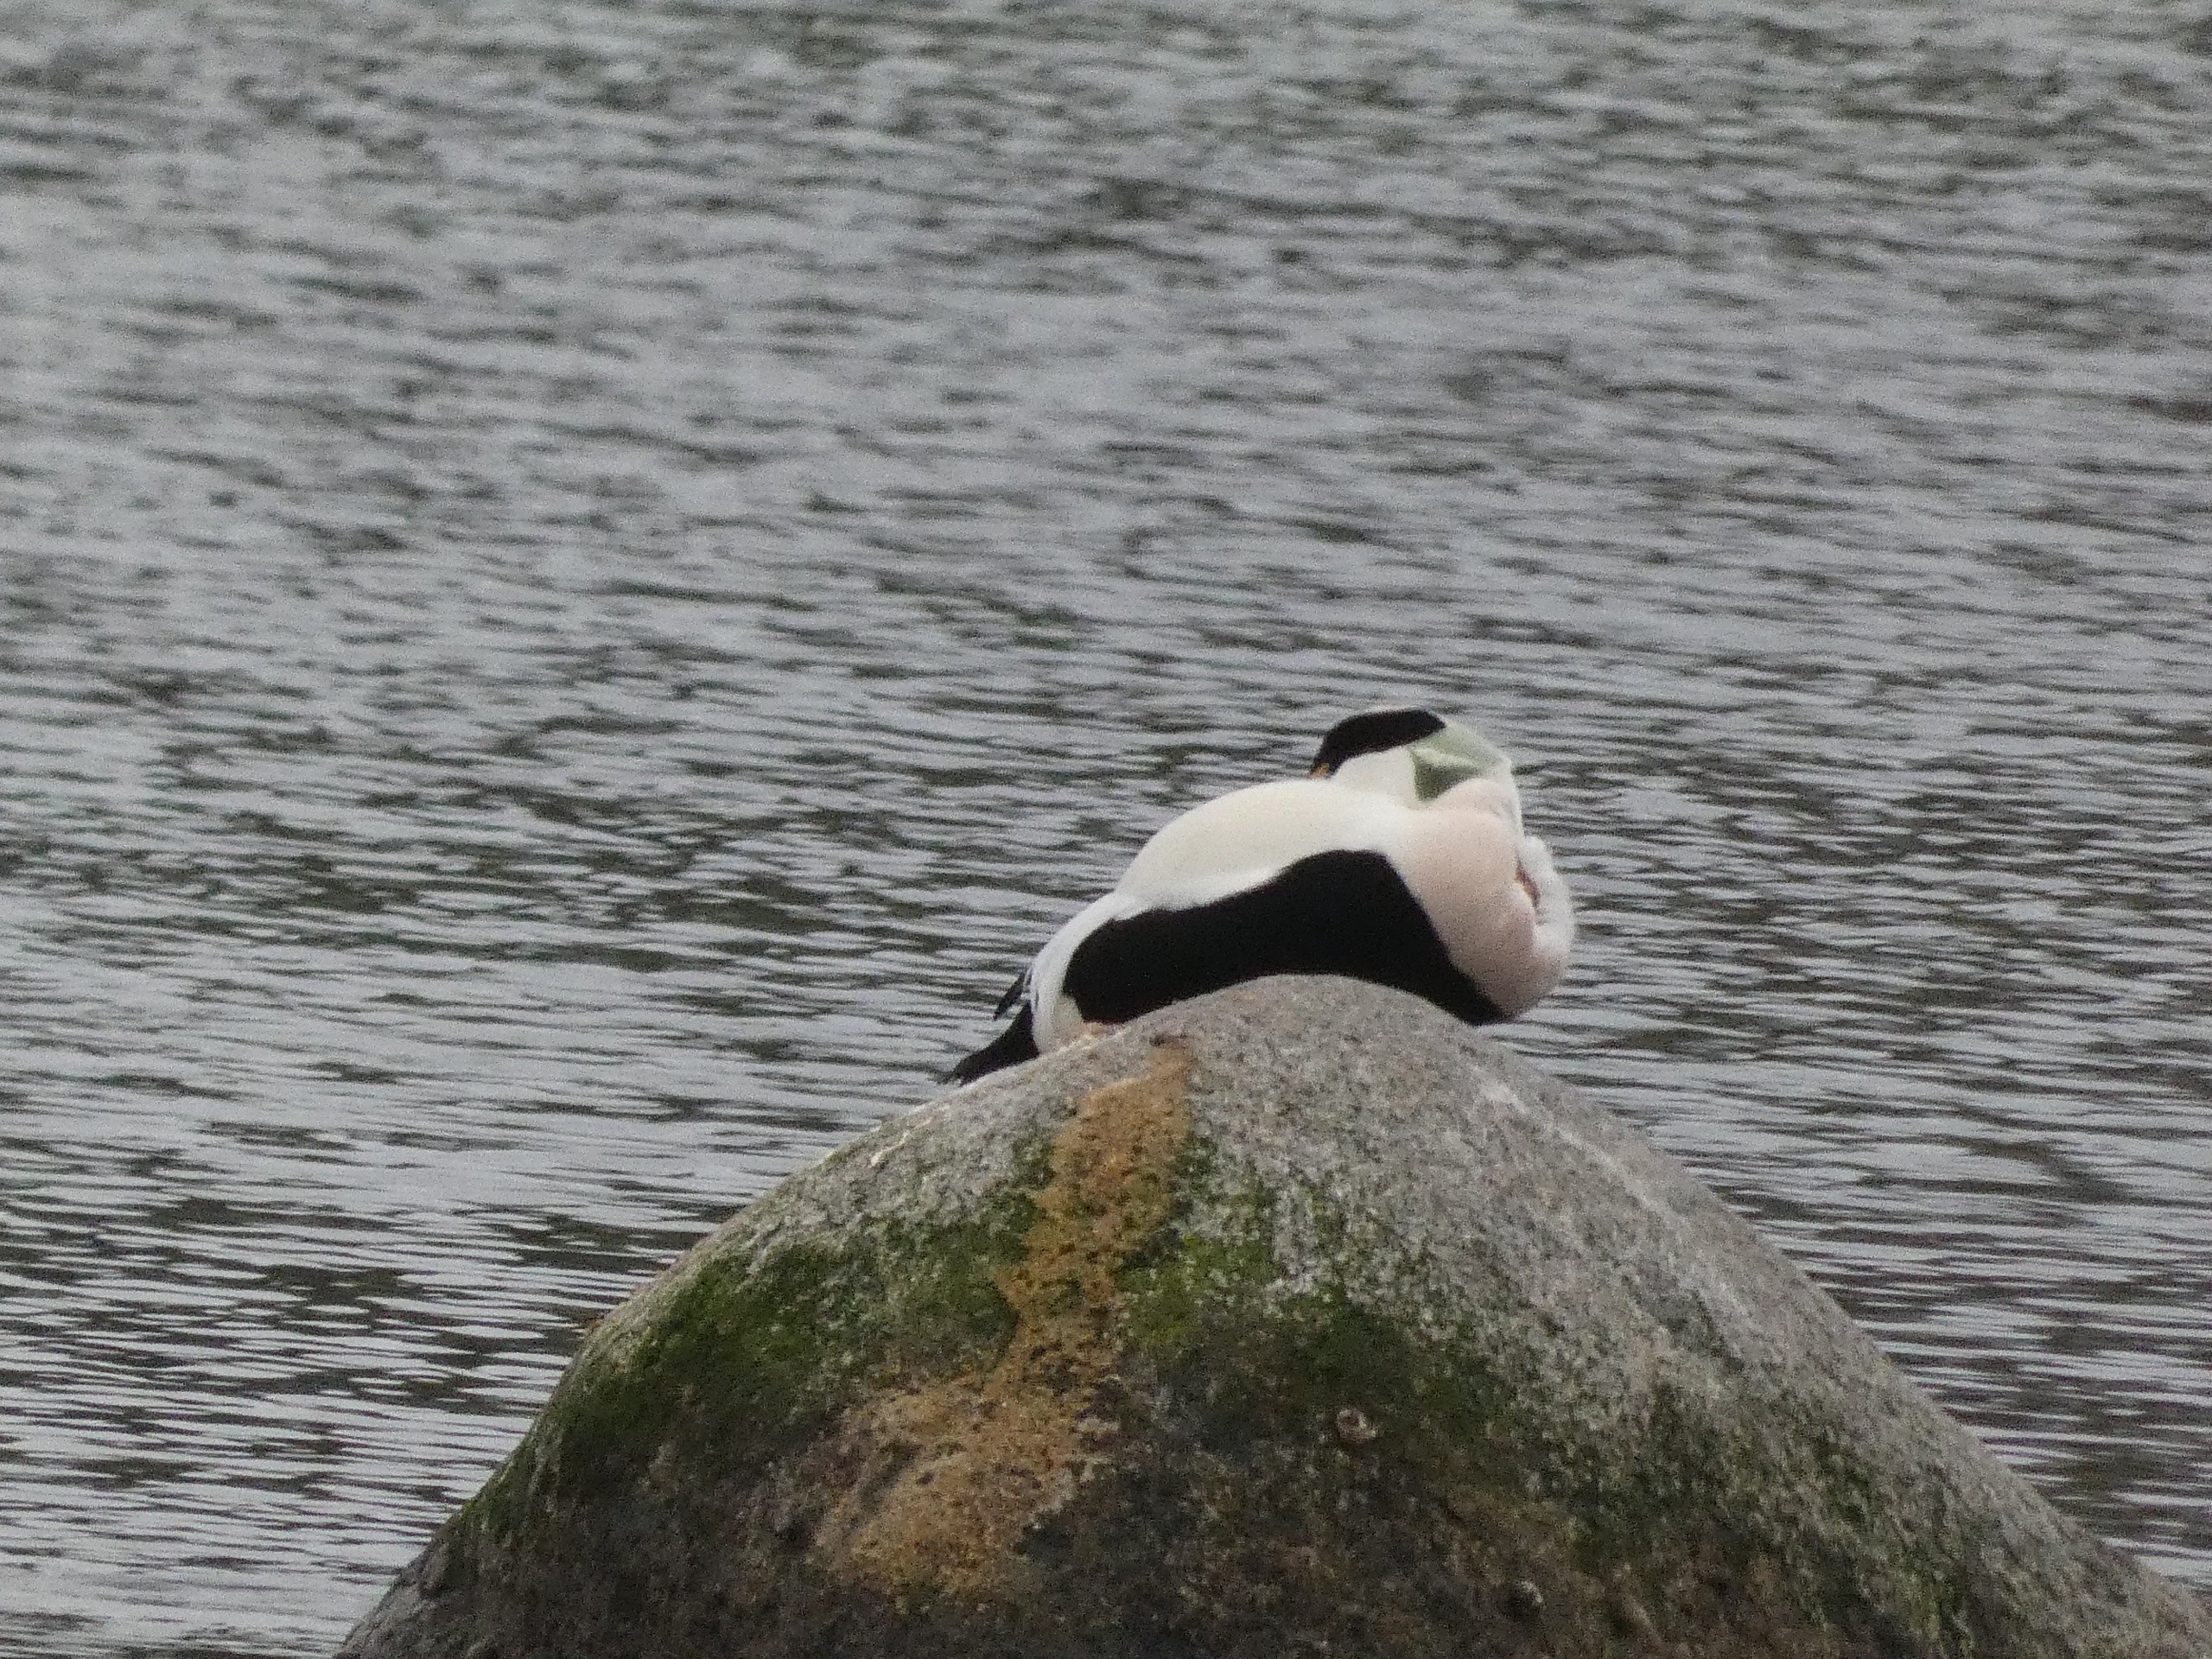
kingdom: Animalia
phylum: Chordata
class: Aves
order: Anseriformes
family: Anatidae
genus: Somateria
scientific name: Somateria mollissima
